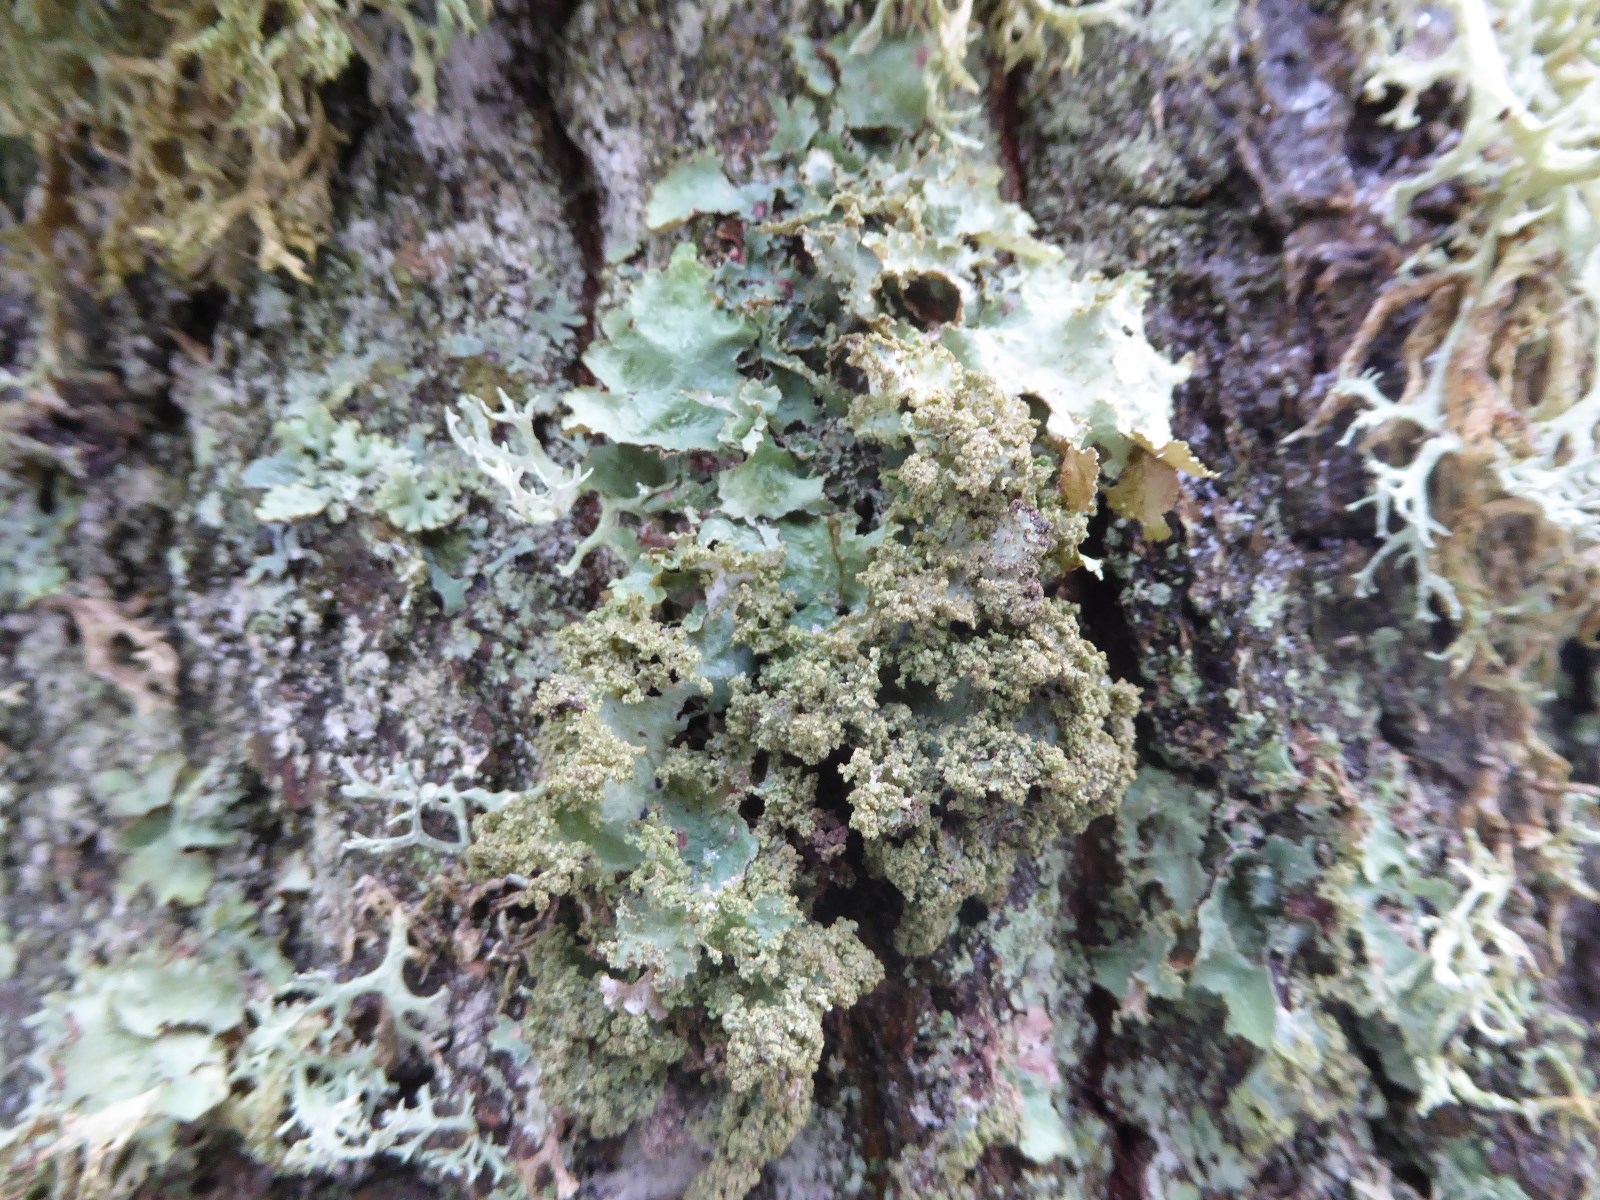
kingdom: Fungi
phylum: Ascomycota
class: Lecanoromycetes
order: Lecanorales
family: Parmeliaceae
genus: Platismatia
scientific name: Platismatia glauca
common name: blågrå papirlav
